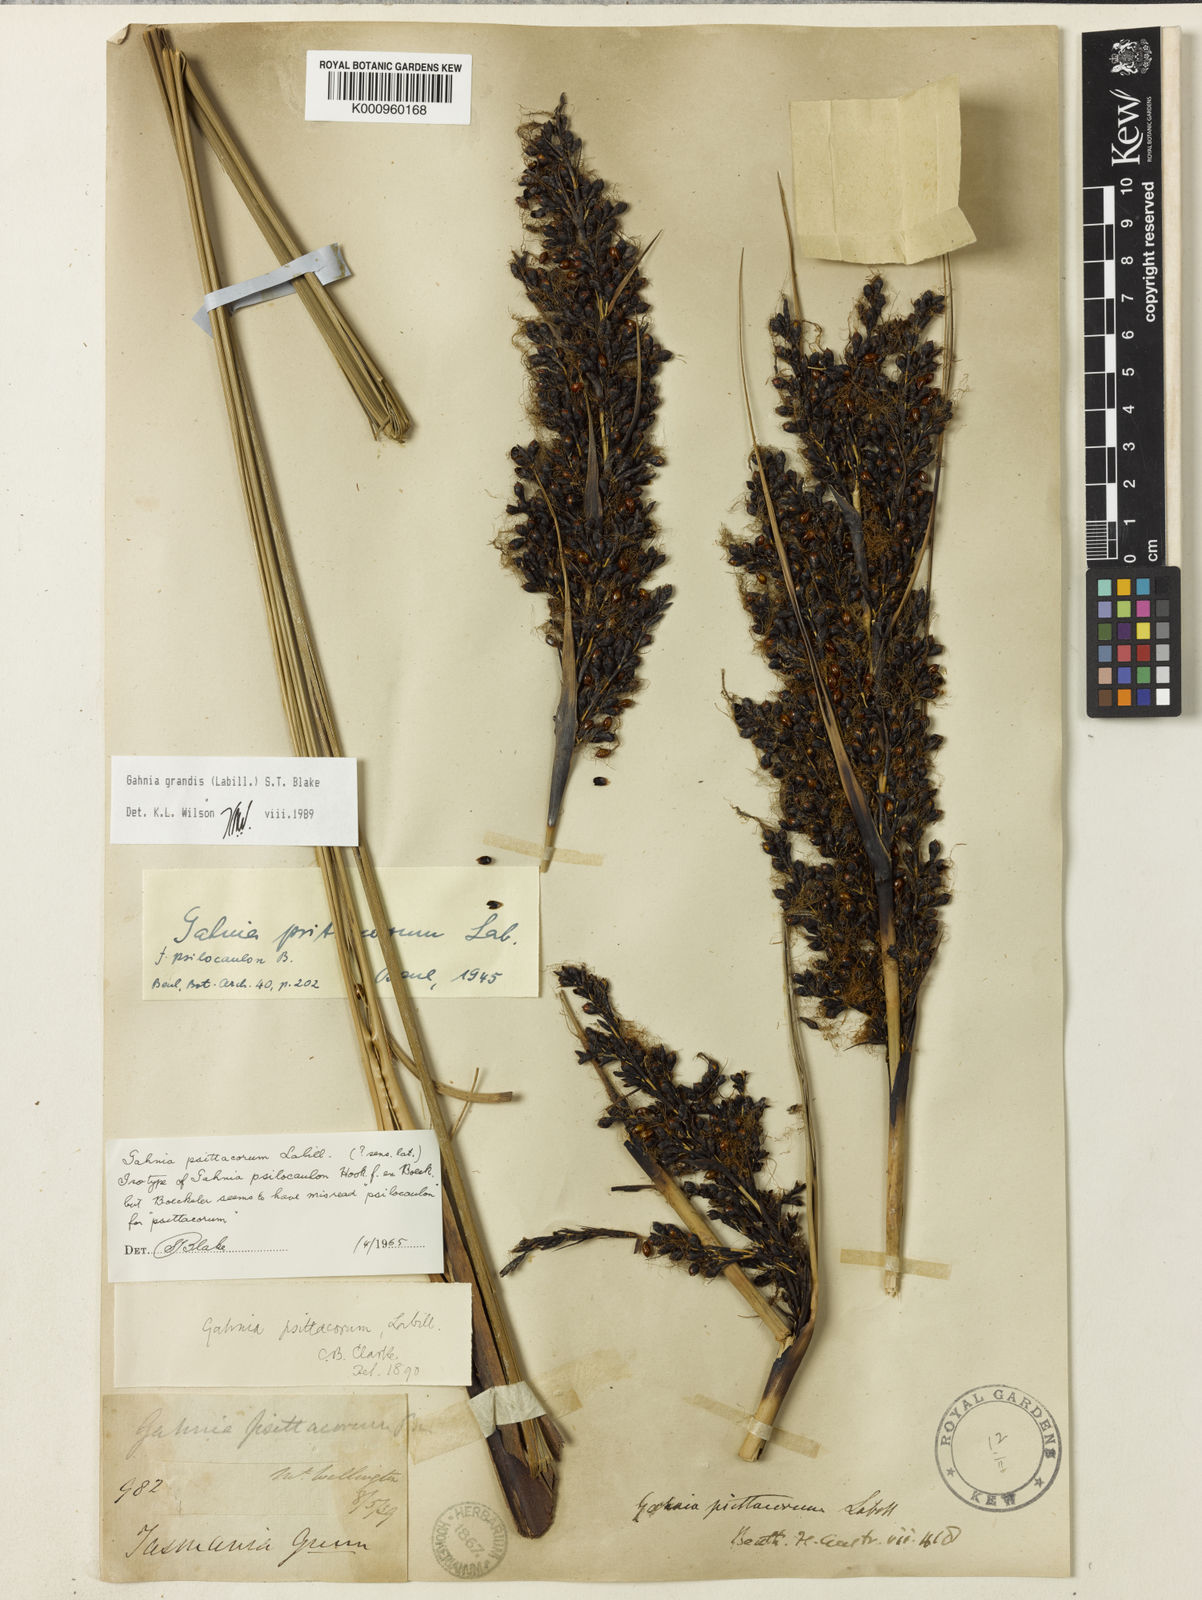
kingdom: Plantae
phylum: Tracheophyta
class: Liliopsida
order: Poales
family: Cyperaceae
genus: Gahnia
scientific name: Gahnia grandis
